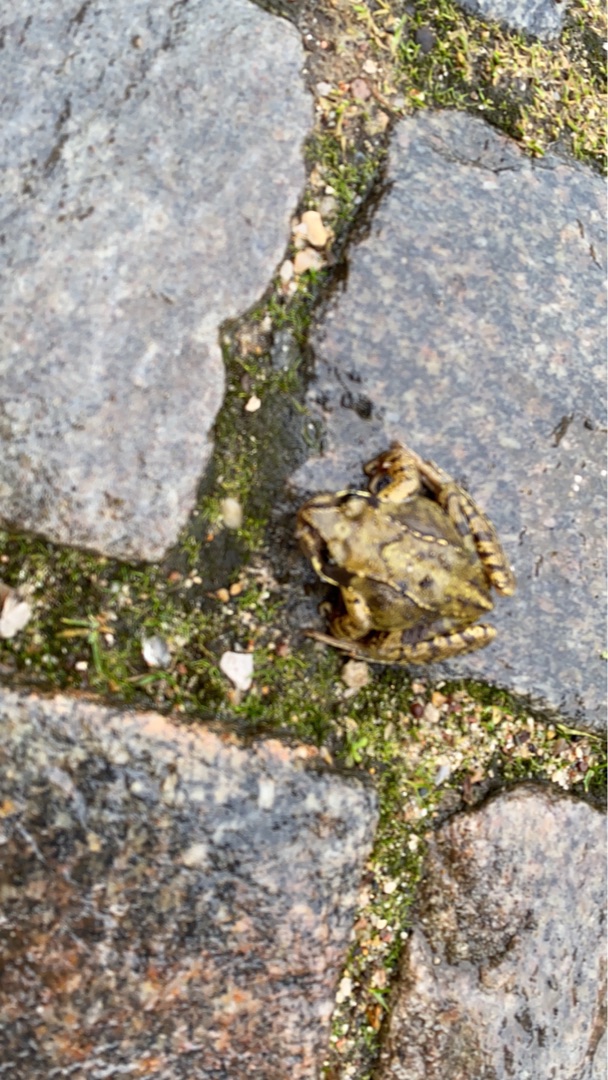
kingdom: Animalia
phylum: Chordata
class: Amphibia
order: Anura
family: Ranidae
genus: Rana
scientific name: Rana temporaria
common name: Butsnudet frø
